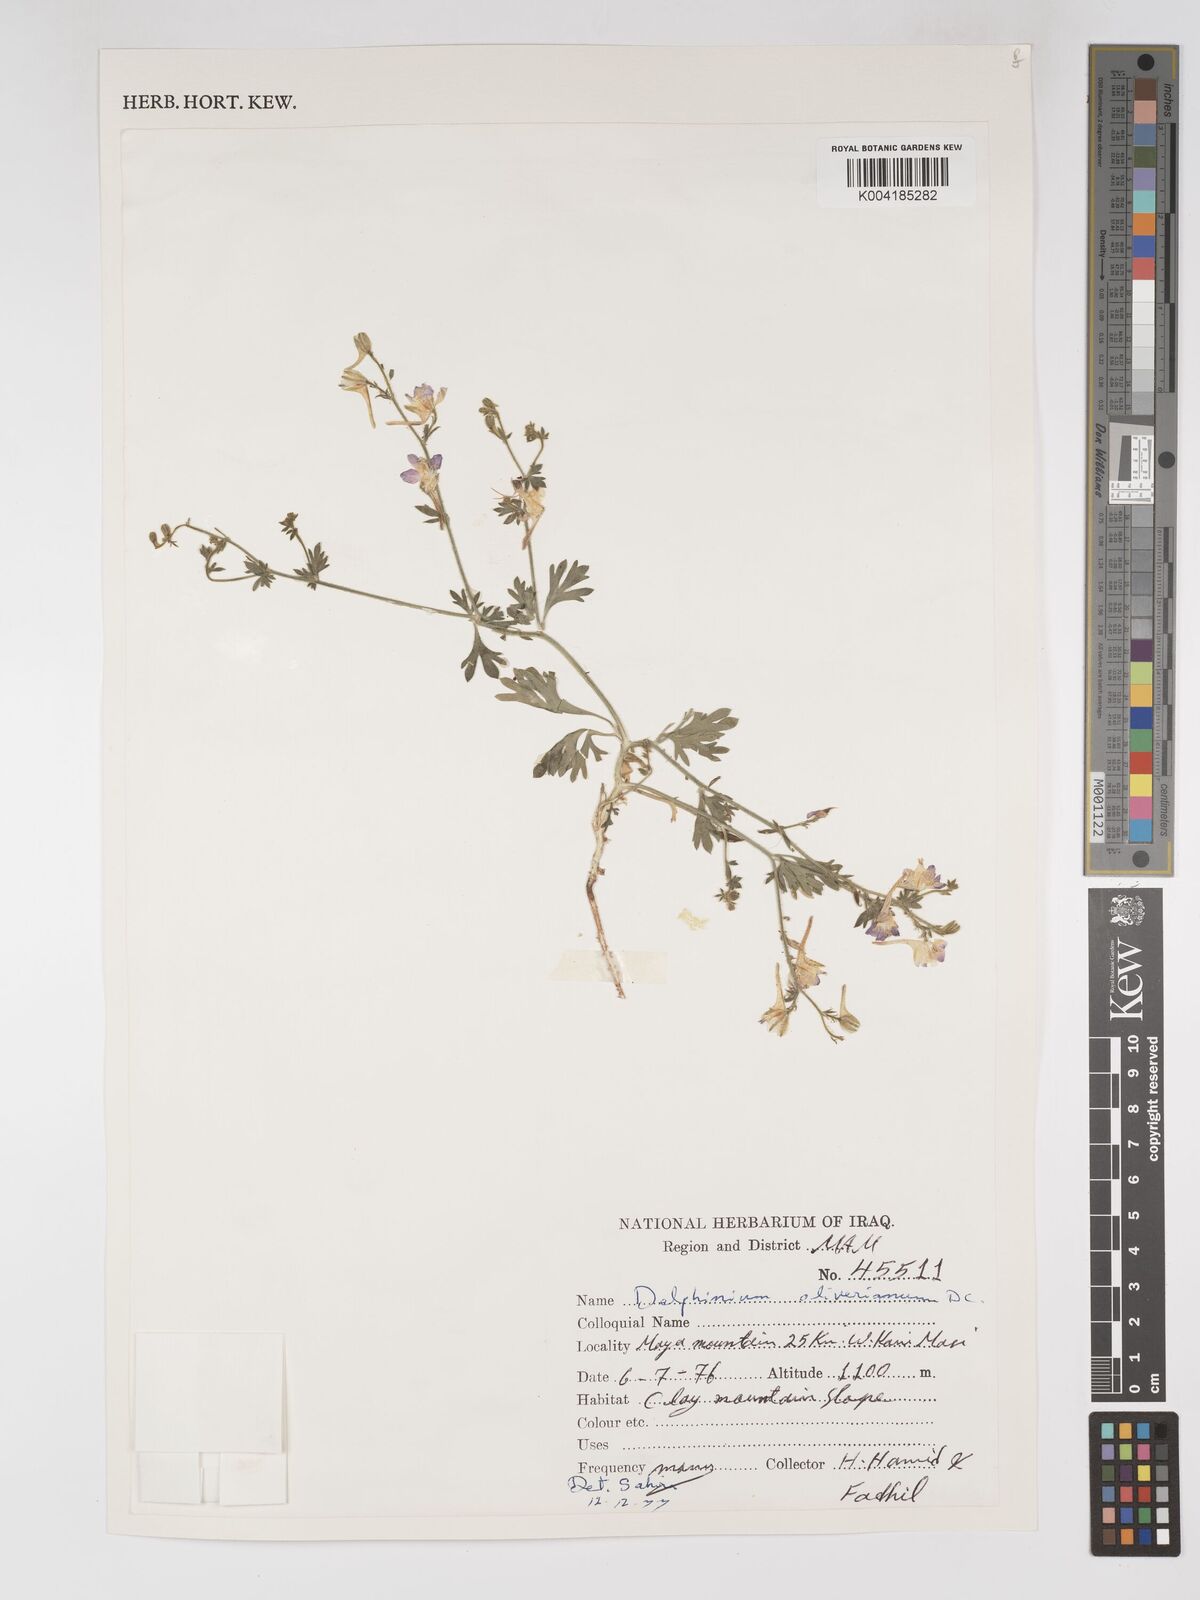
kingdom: Plantae
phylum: Tracheophyta
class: Magnoliopsida
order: Ranunculales
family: Ranunculaceae
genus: Delphinium
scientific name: Delphinium oliverianum
